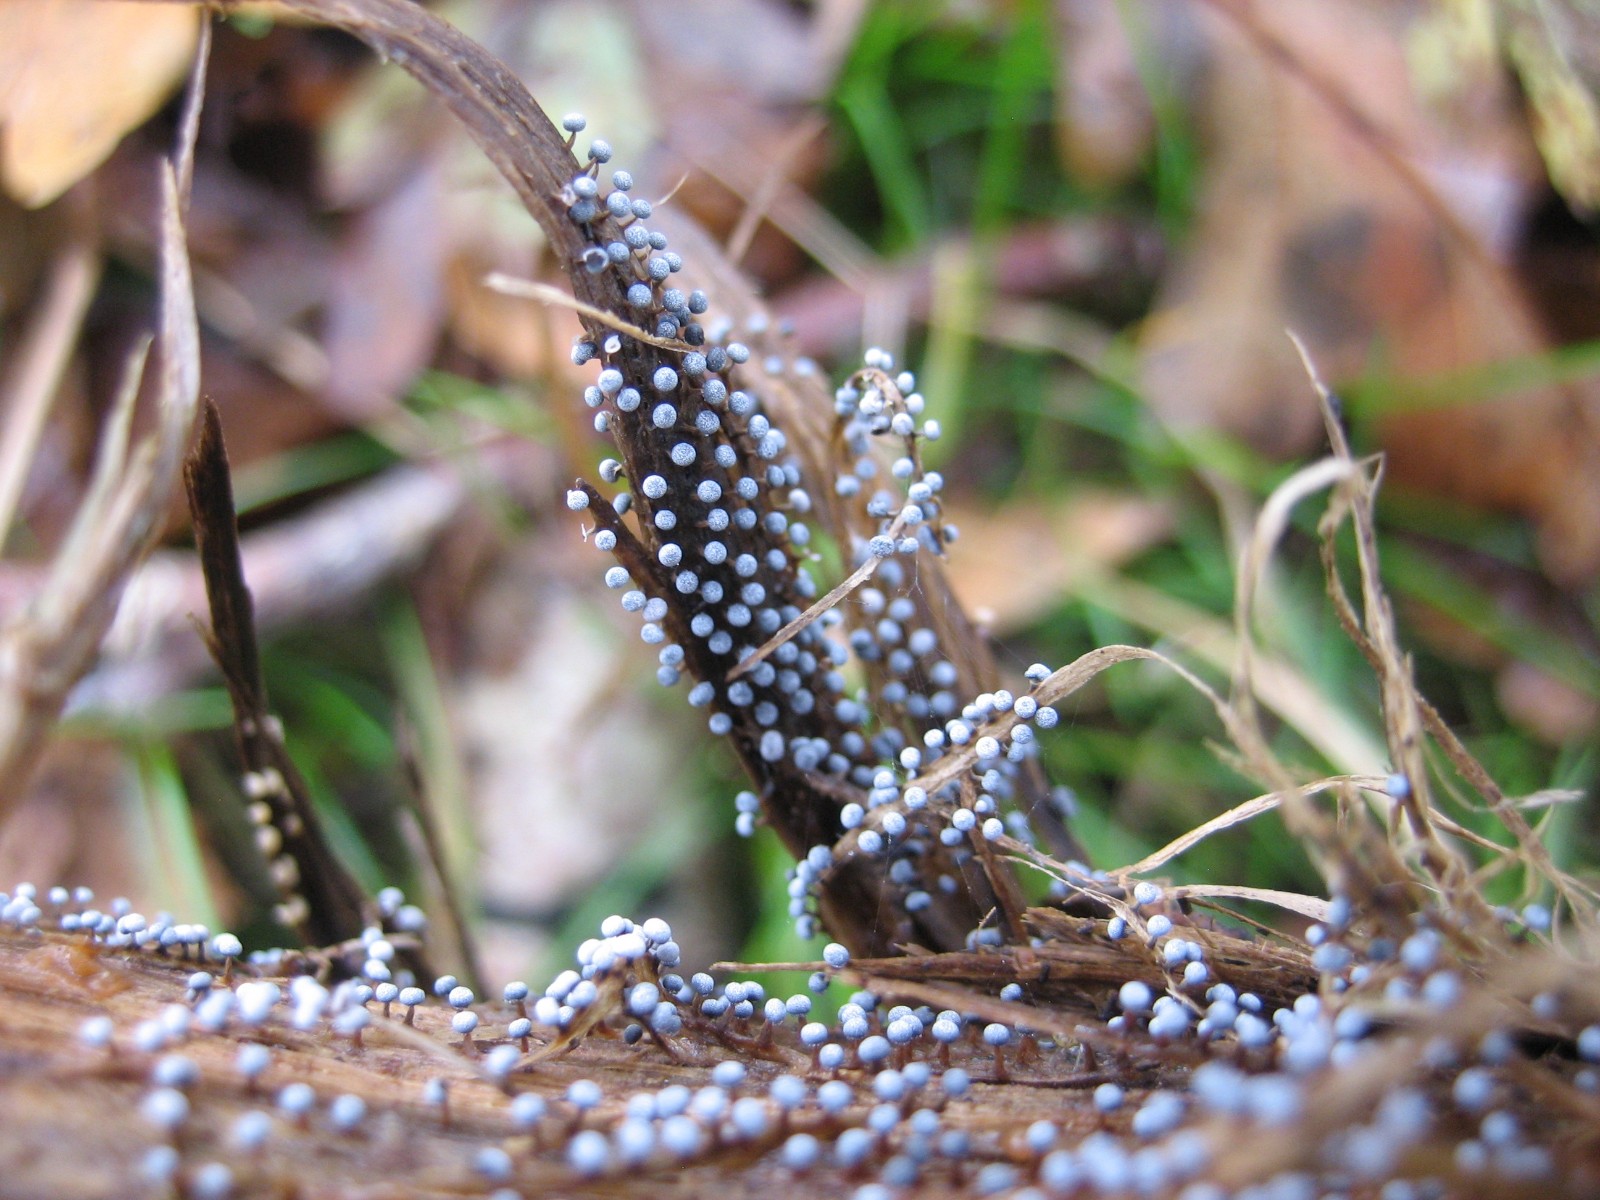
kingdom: Protozoa
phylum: Mycetozoa
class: Myxomycetes
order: Physarales
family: Physaraceae
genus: Physarum
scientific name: Physarum leucophaeum
